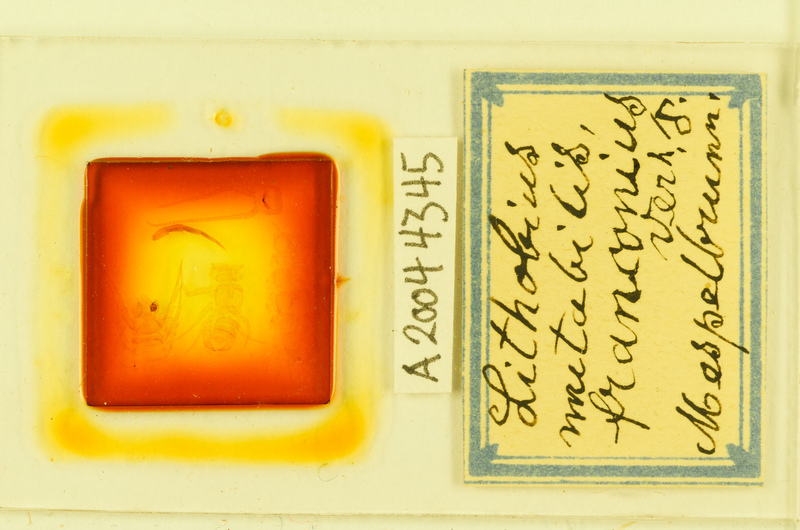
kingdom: Animalia
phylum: Arthropoda
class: Chilopoda
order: Lithobiomorpha
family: Lithobiidae
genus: Lithobius
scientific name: Lithobius mutabilis
